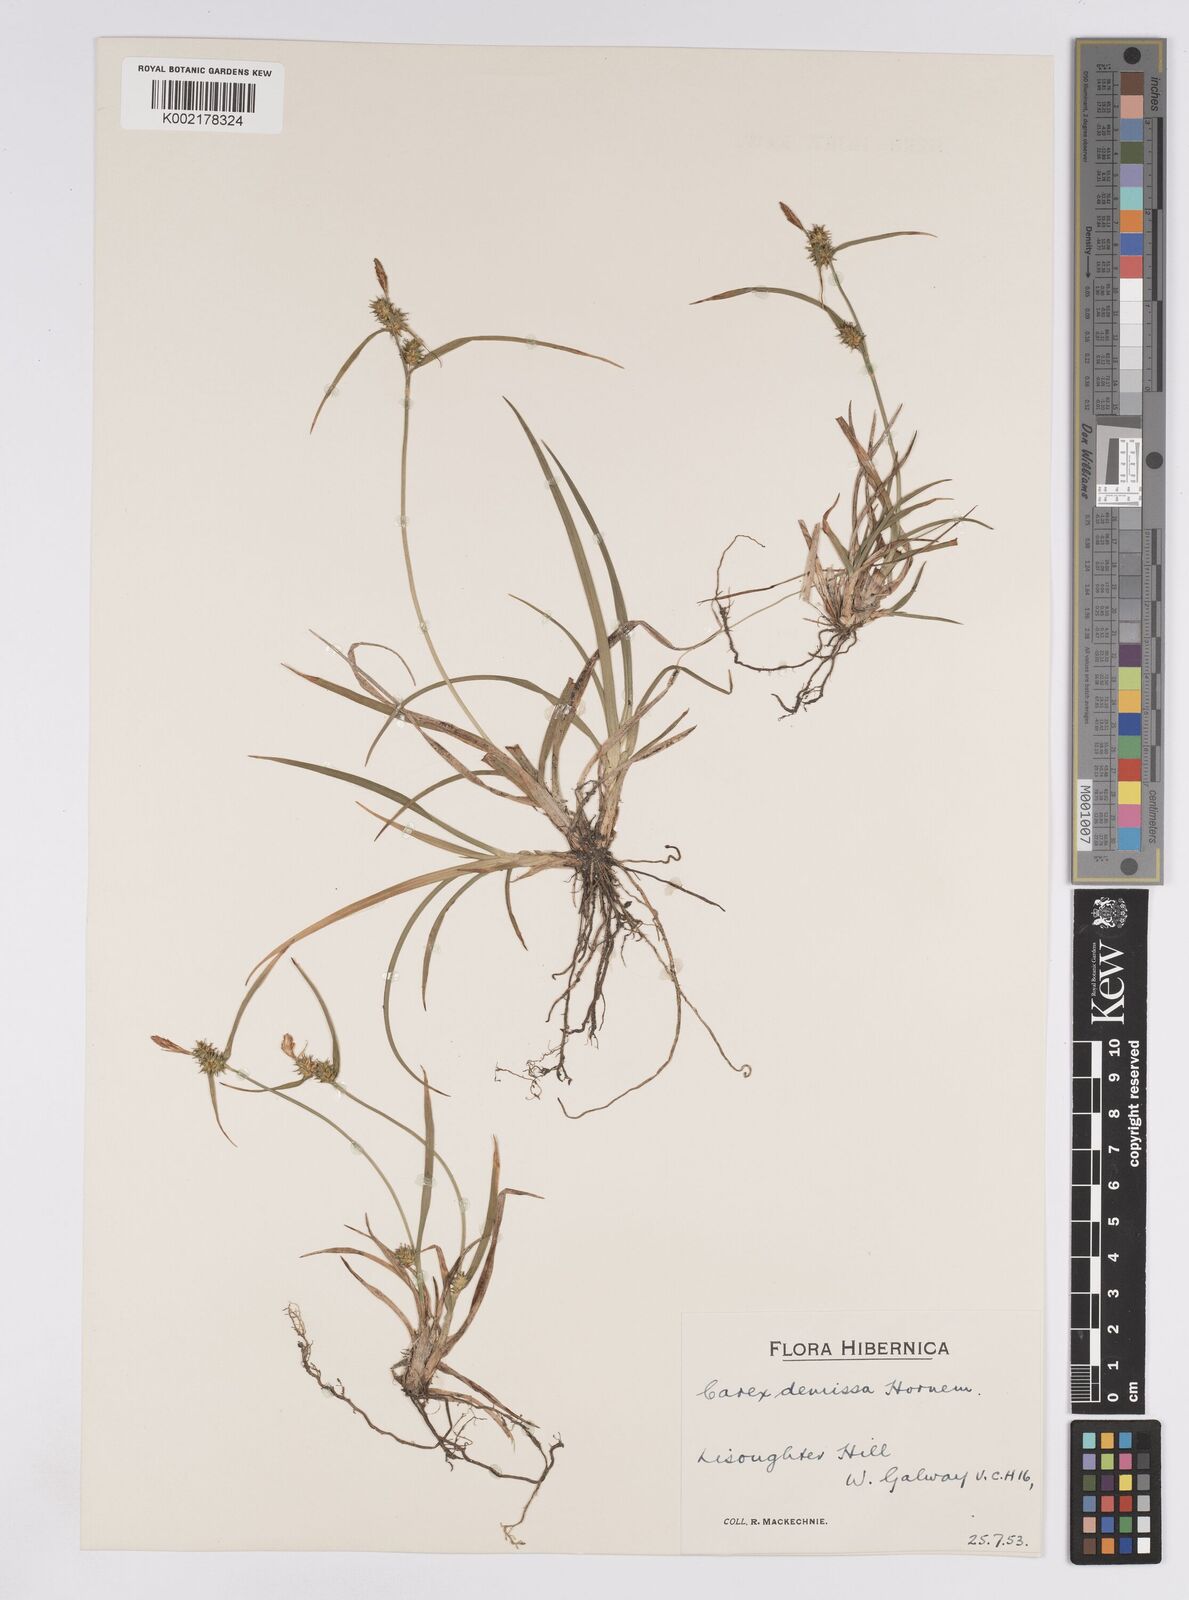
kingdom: Plantae
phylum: Tracheophyta
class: Liliopsida
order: Poales
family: Cyperaceae
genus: Carex
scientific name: Carex demissa
